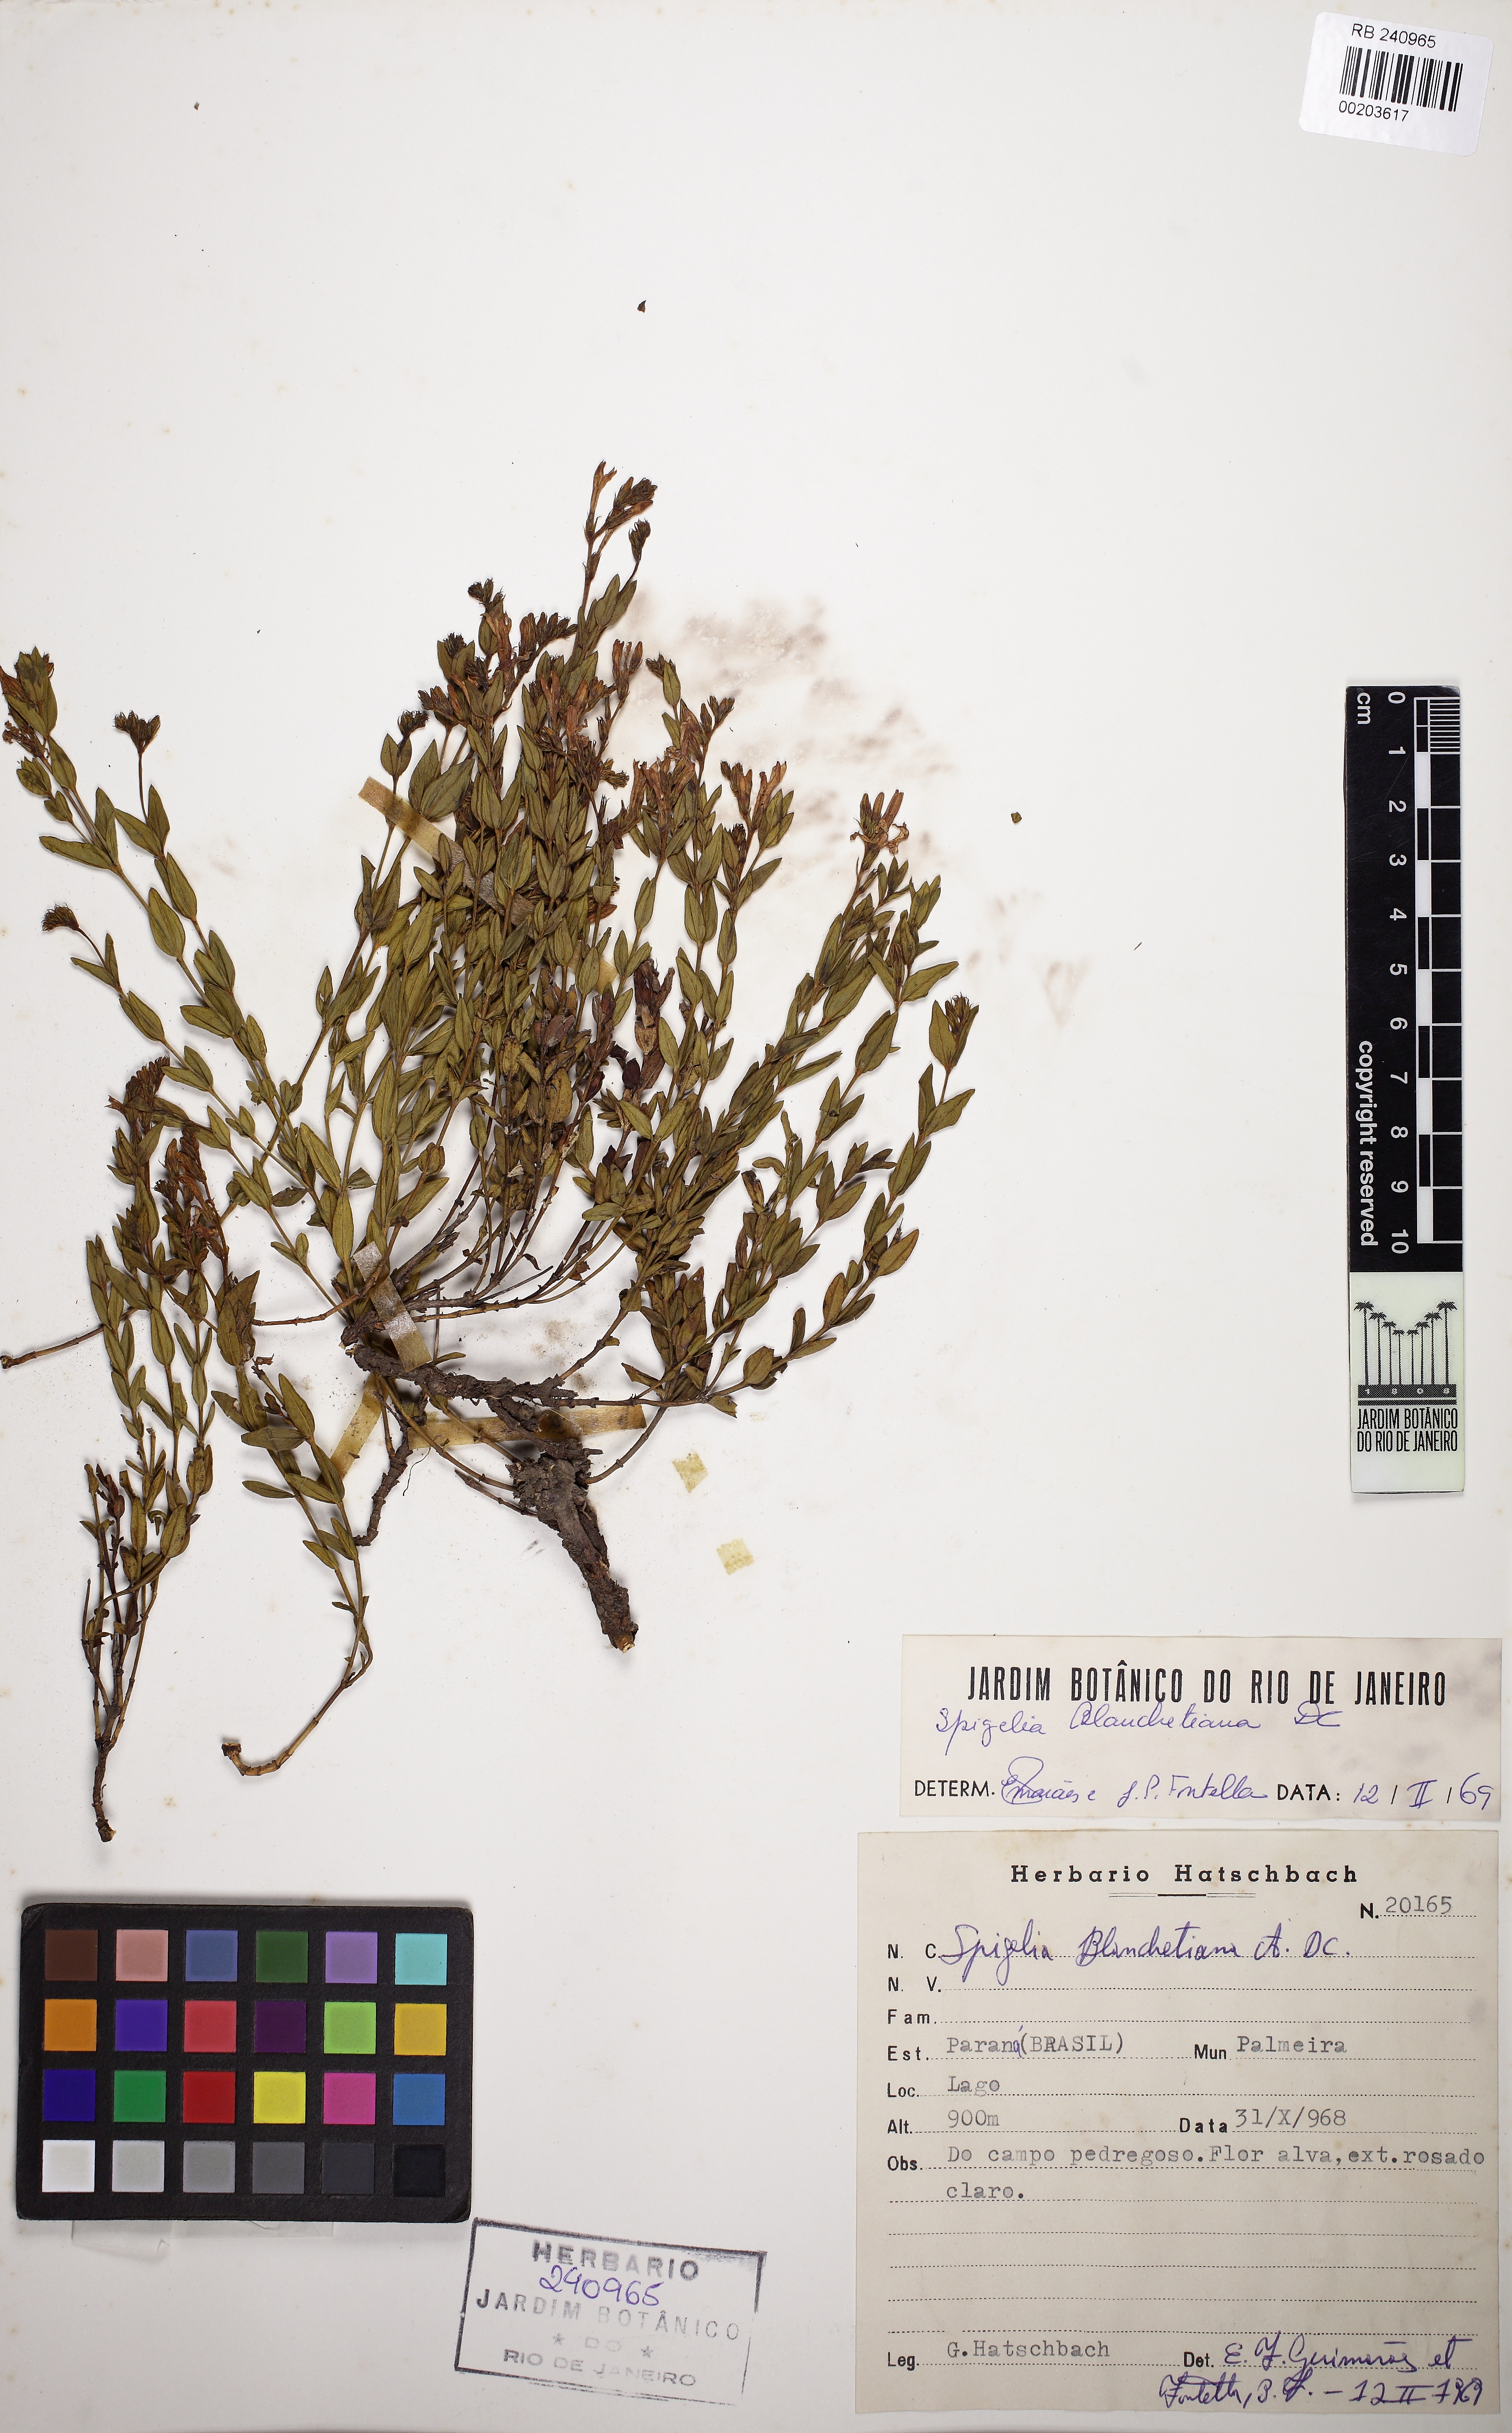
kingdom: Plantae
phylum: Tracheophyta
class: Magnoliopsida
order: Gentianales
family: Loganiaceae
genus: Spigelia
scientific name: Spigelia blanchetiana
